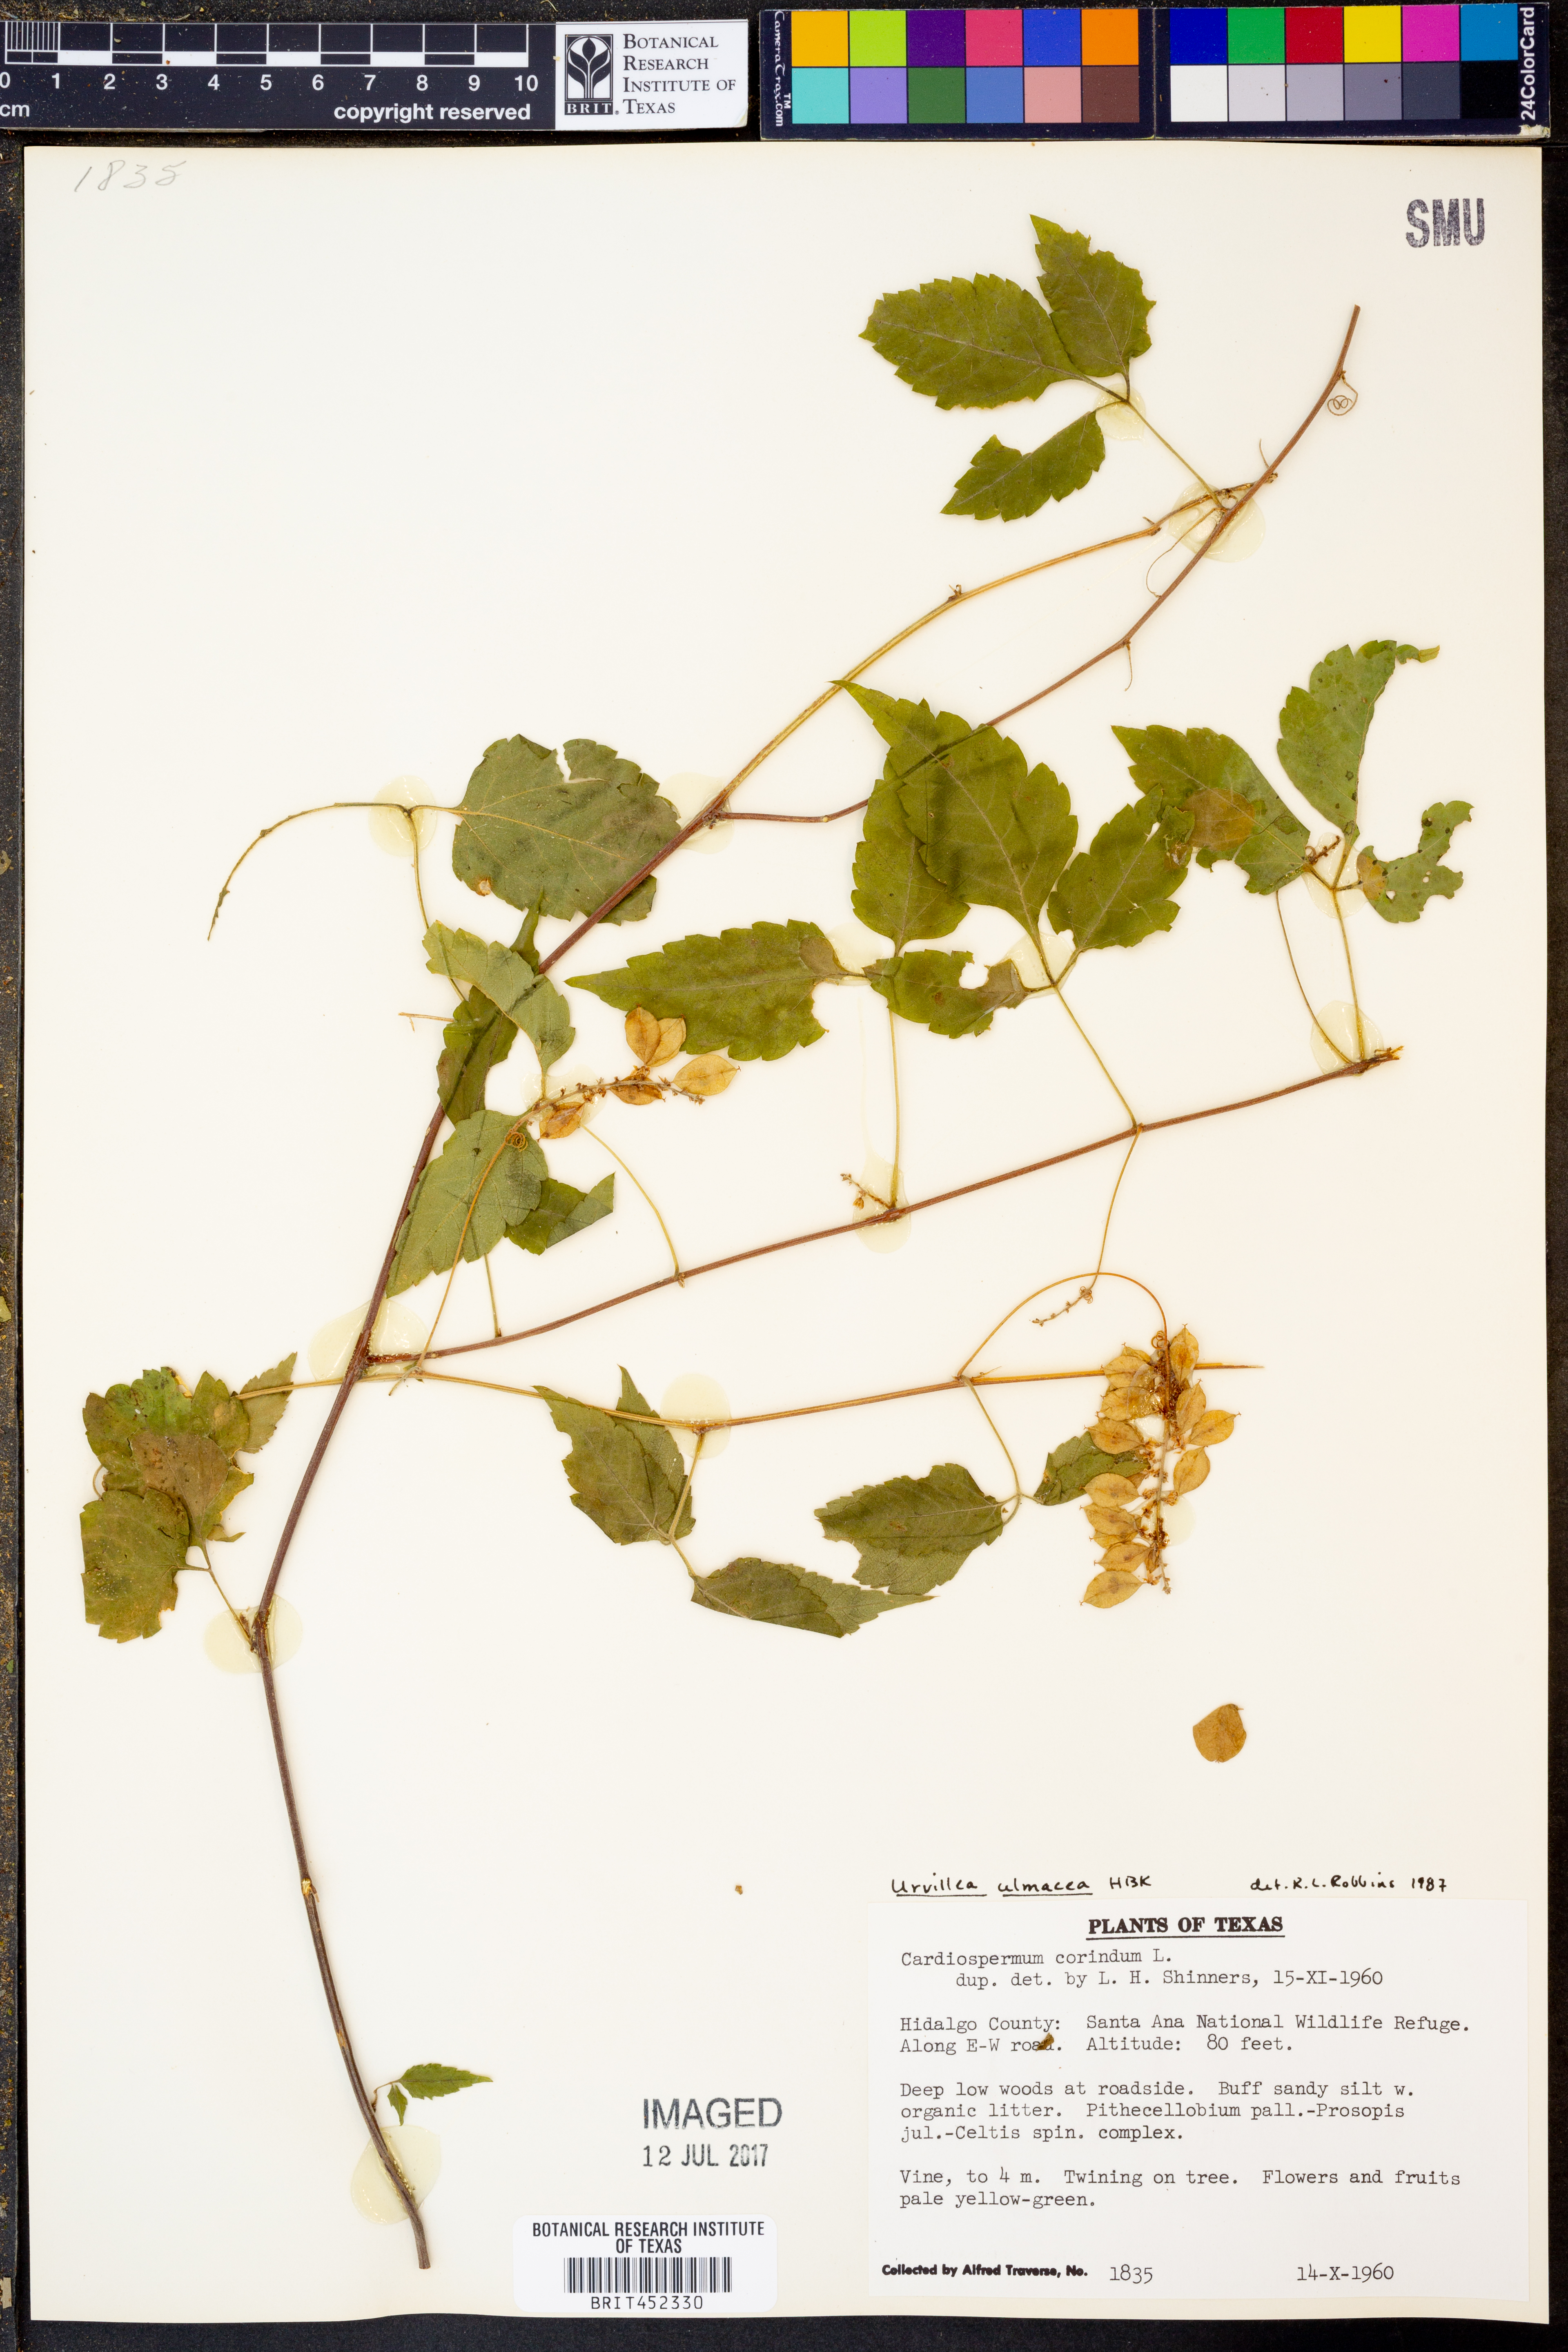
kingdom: Plantae
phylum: Tracheophyta
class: Magnoliopsida
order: Sapindales
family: Sapindaceae
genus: Cardiospermum
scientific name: Cardiospermum corindum
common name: Faux persil
